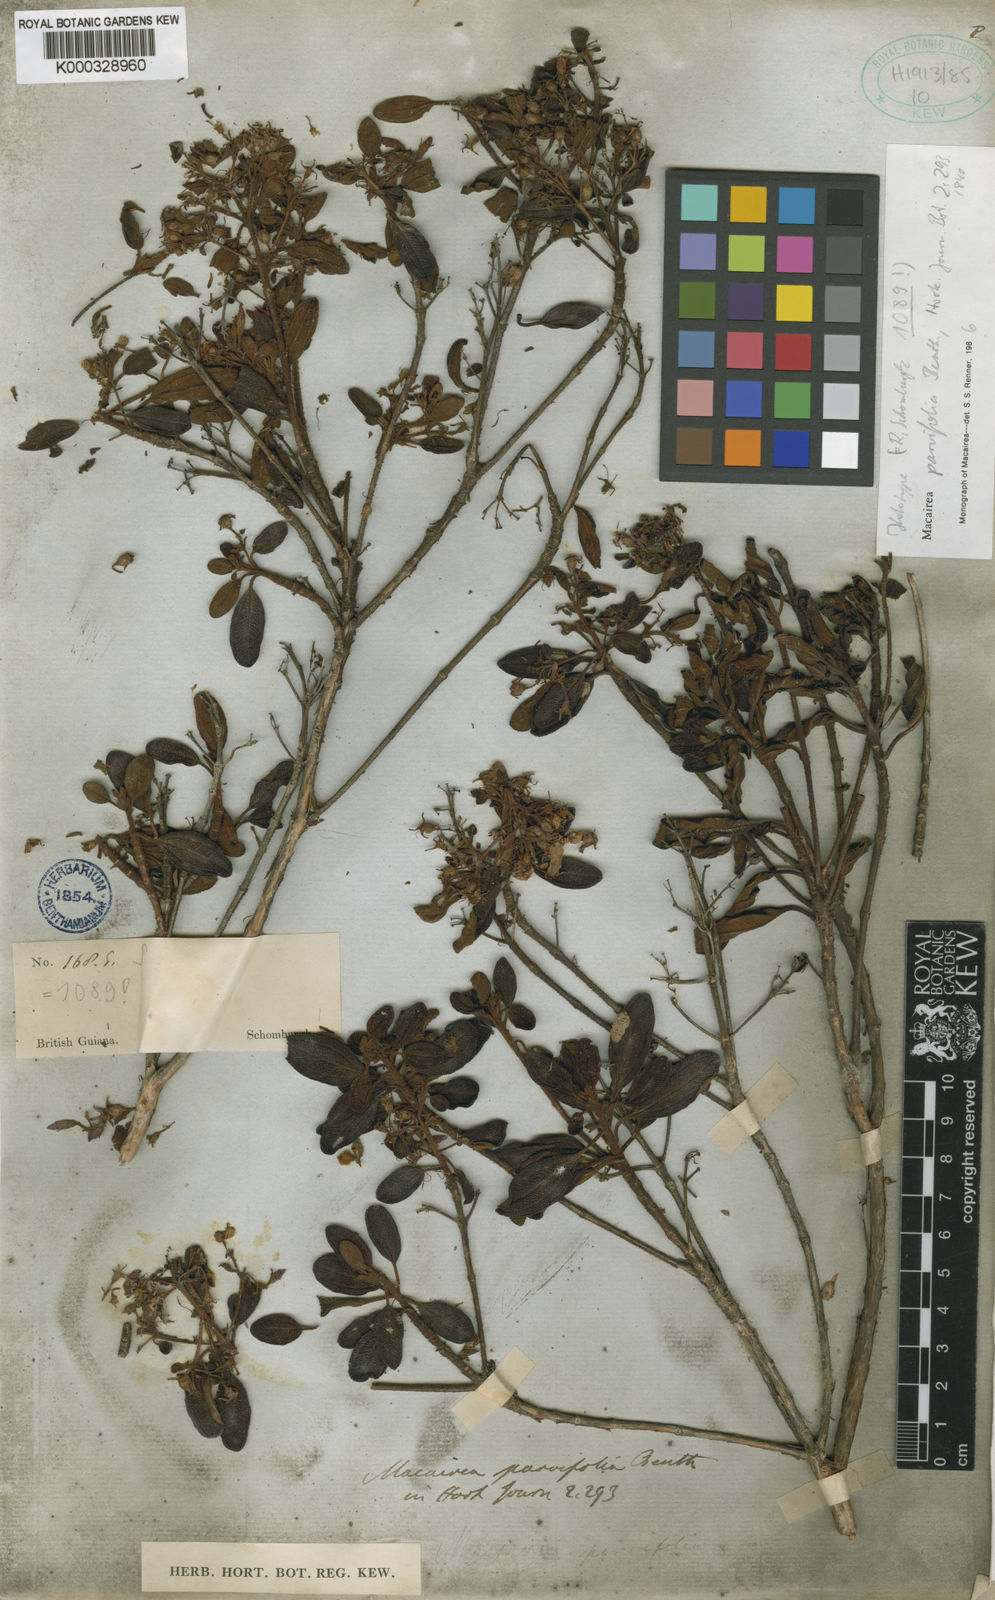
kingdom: Plantae
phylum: Tracheophyta
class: Magnoliopsida
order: Myrtales
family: Melastomataceae
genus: Macairea
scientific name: Macairea parvifolia
